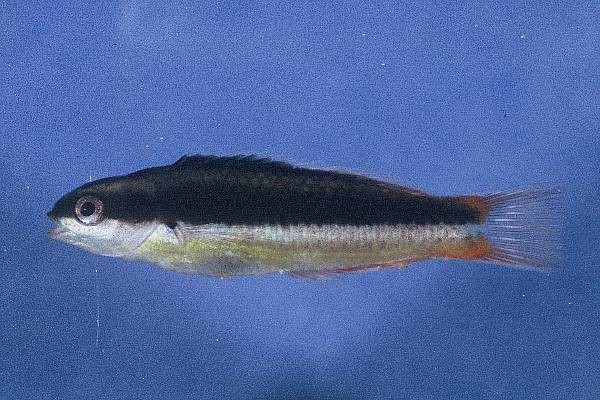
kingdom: Animalia
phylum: Chordata
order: Perciformes
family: Labridae
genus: Thalassoma
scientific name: Thalassoma amblycephalum
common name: Bluehead wrasse
